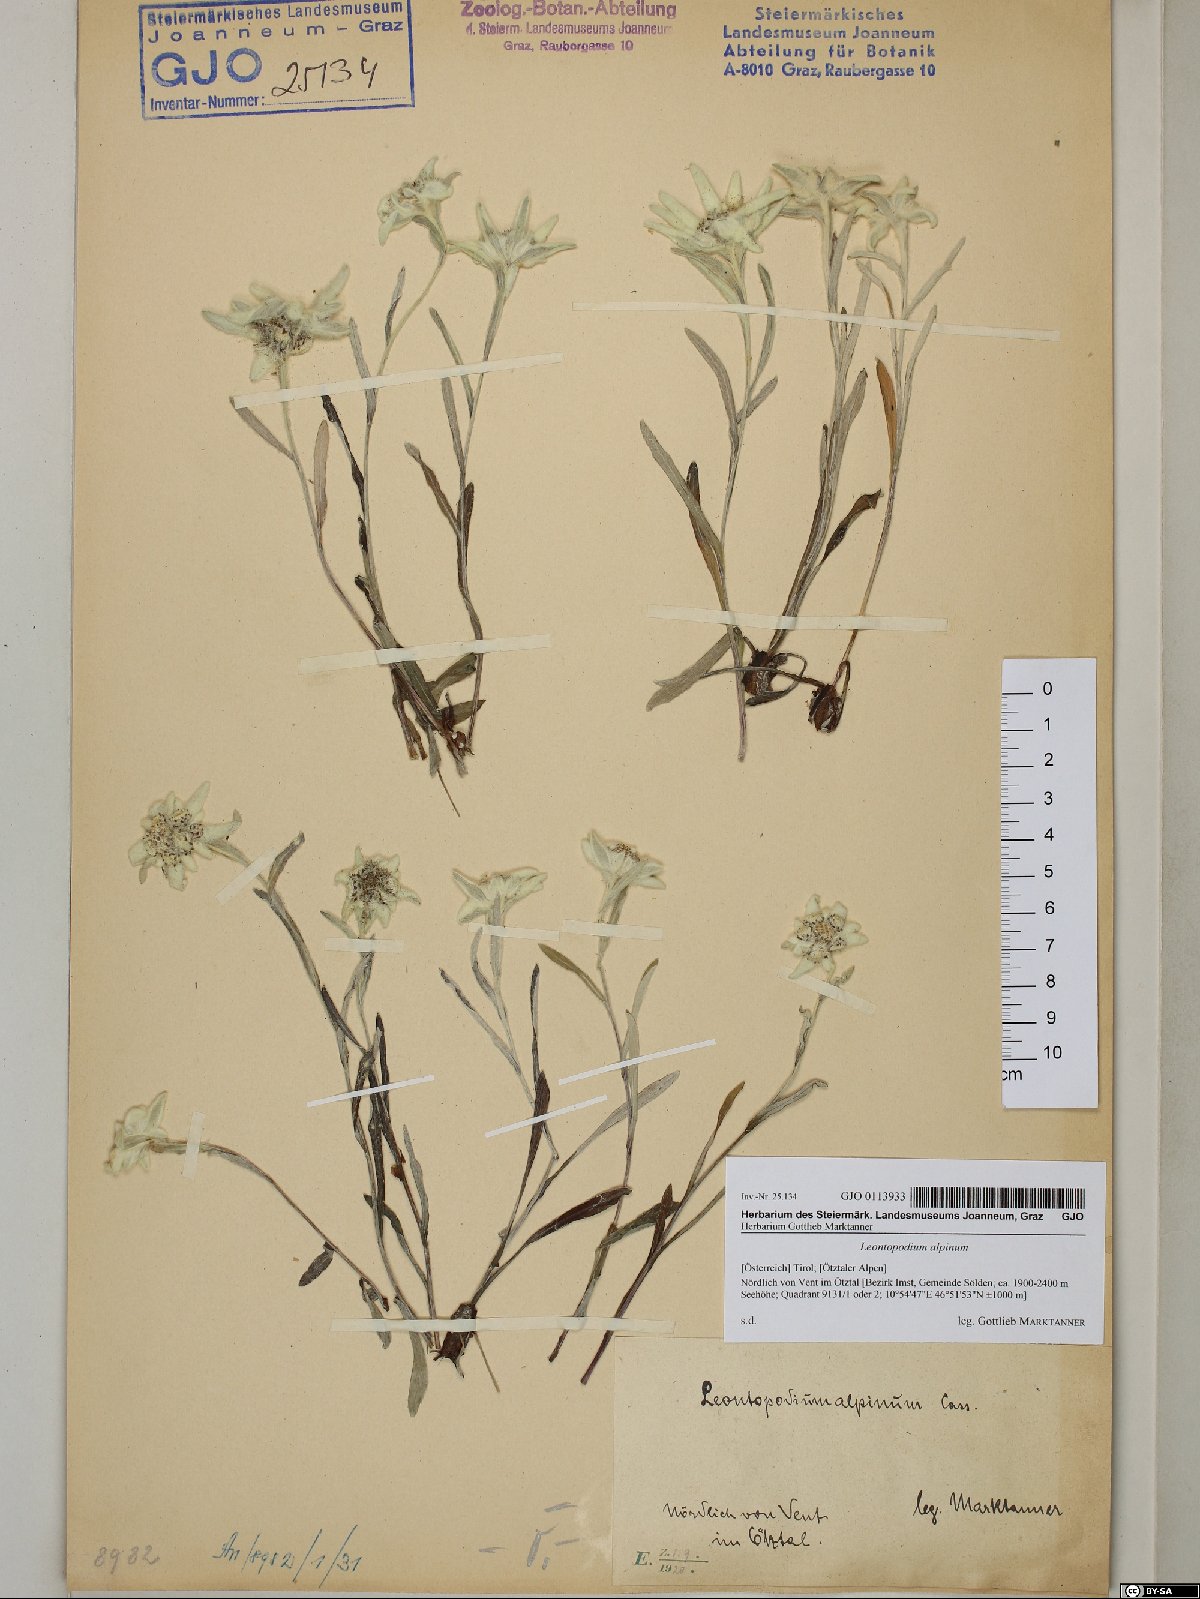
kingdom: Plantae
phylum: Tracheophyta
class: Magnoliopsida
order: Asterales
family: Asteraceae
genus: Leontopodium
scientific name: Leontopodium nivale
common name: Edelweiss
